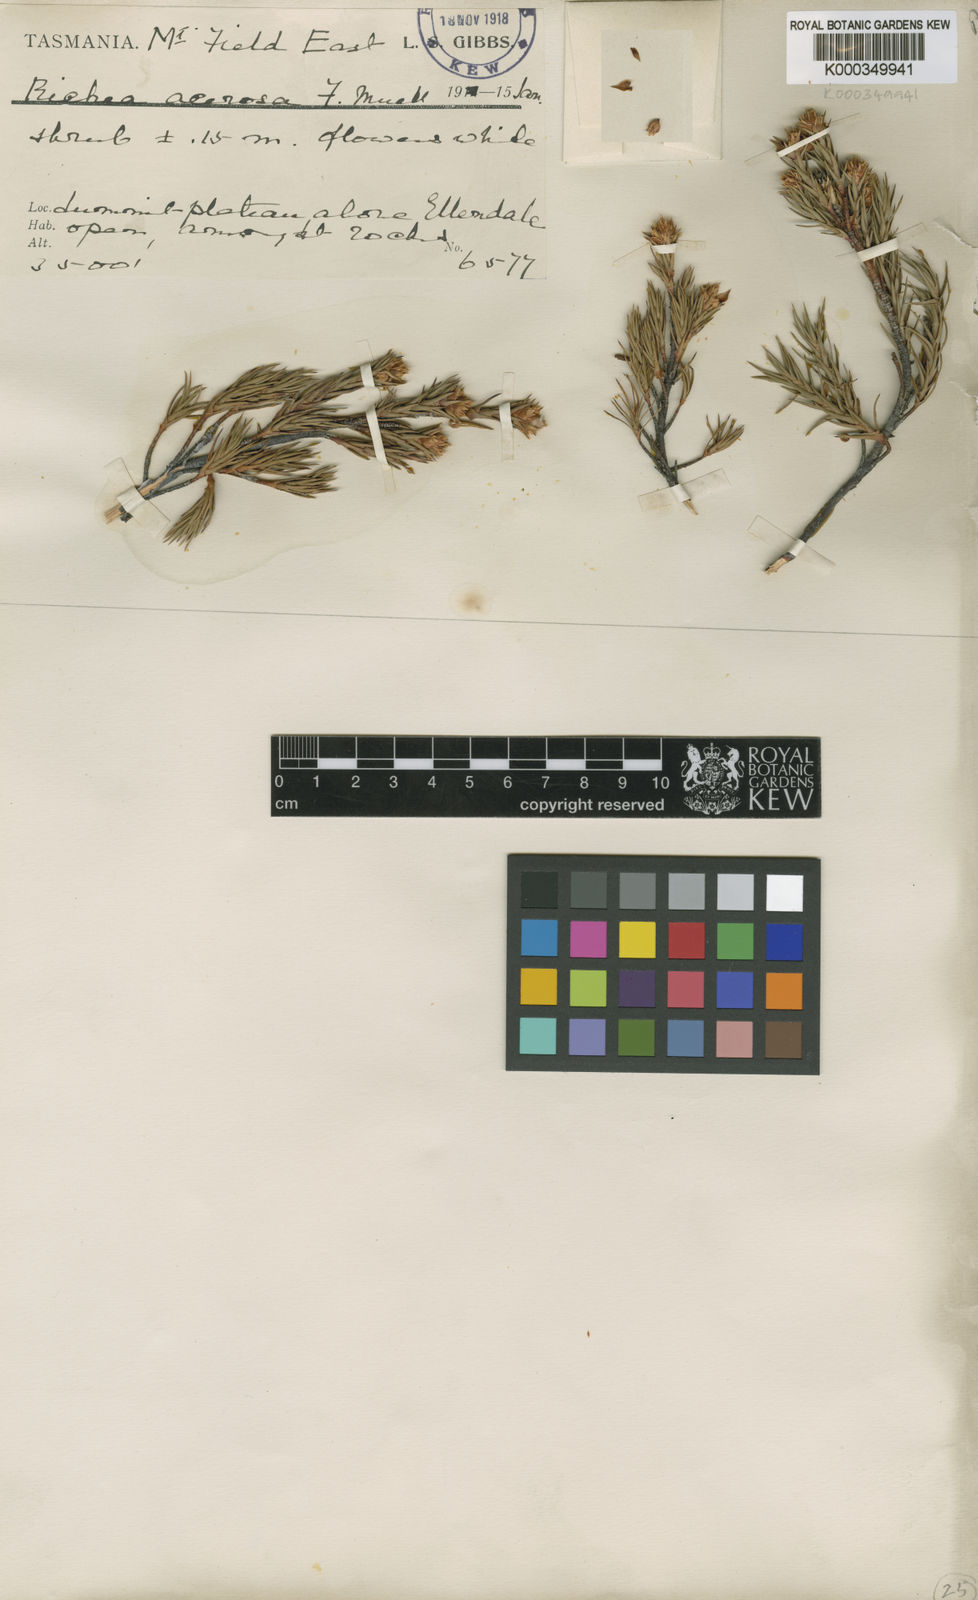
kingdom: Plantae
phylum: Tracheophyta
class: Magnoliopsida
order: Ericales
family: Ericaceae
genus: Dracophyllum
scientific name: Dracophyllum laciniatum
